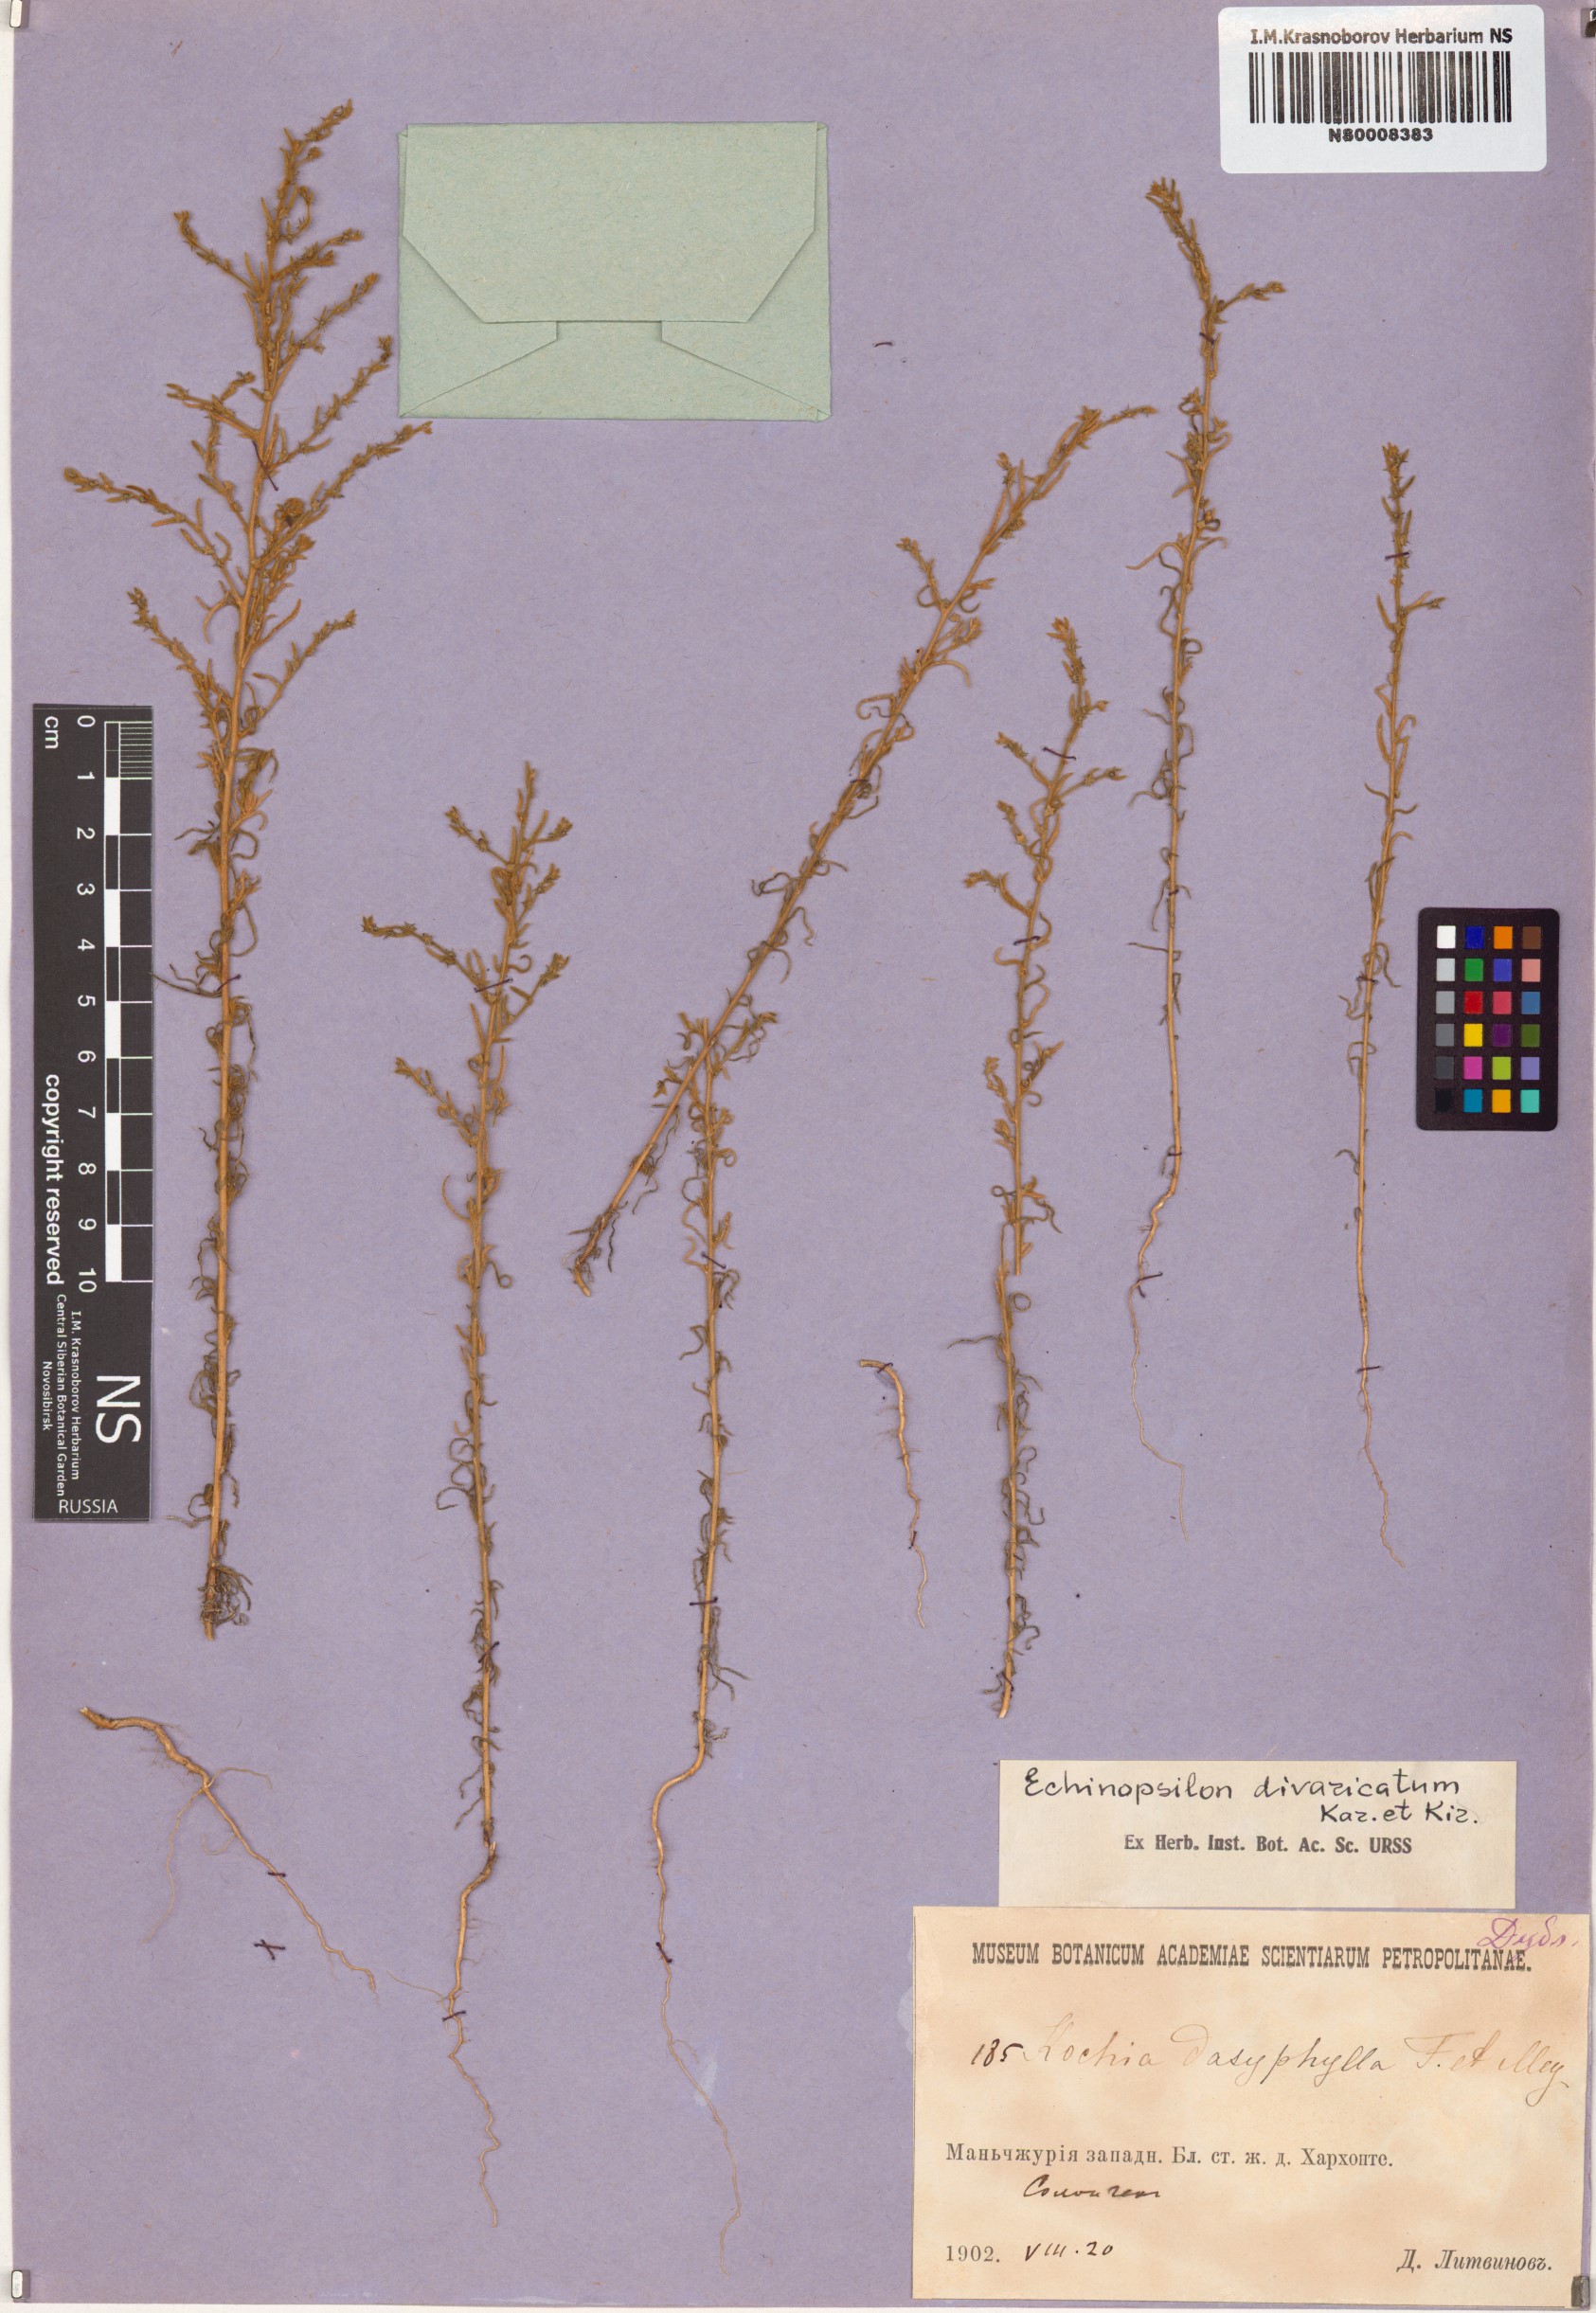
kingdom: Plantae
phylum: Tracheophyta
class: Magnoliopsida
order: Caryophyllales
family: Amaranthaceae
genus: Grubovia
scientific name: Grubovia dasyphylla
